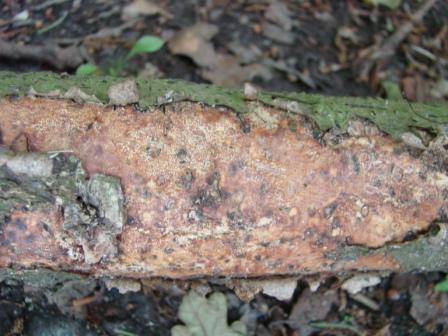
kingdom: Fungi
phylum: Basidiomycota
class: Agaricomycetes
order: Corticiales
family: Vuilleminiaceae
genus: Vuilleminia
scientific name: Vuilleminia comedens
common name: almindelig barksprænger
